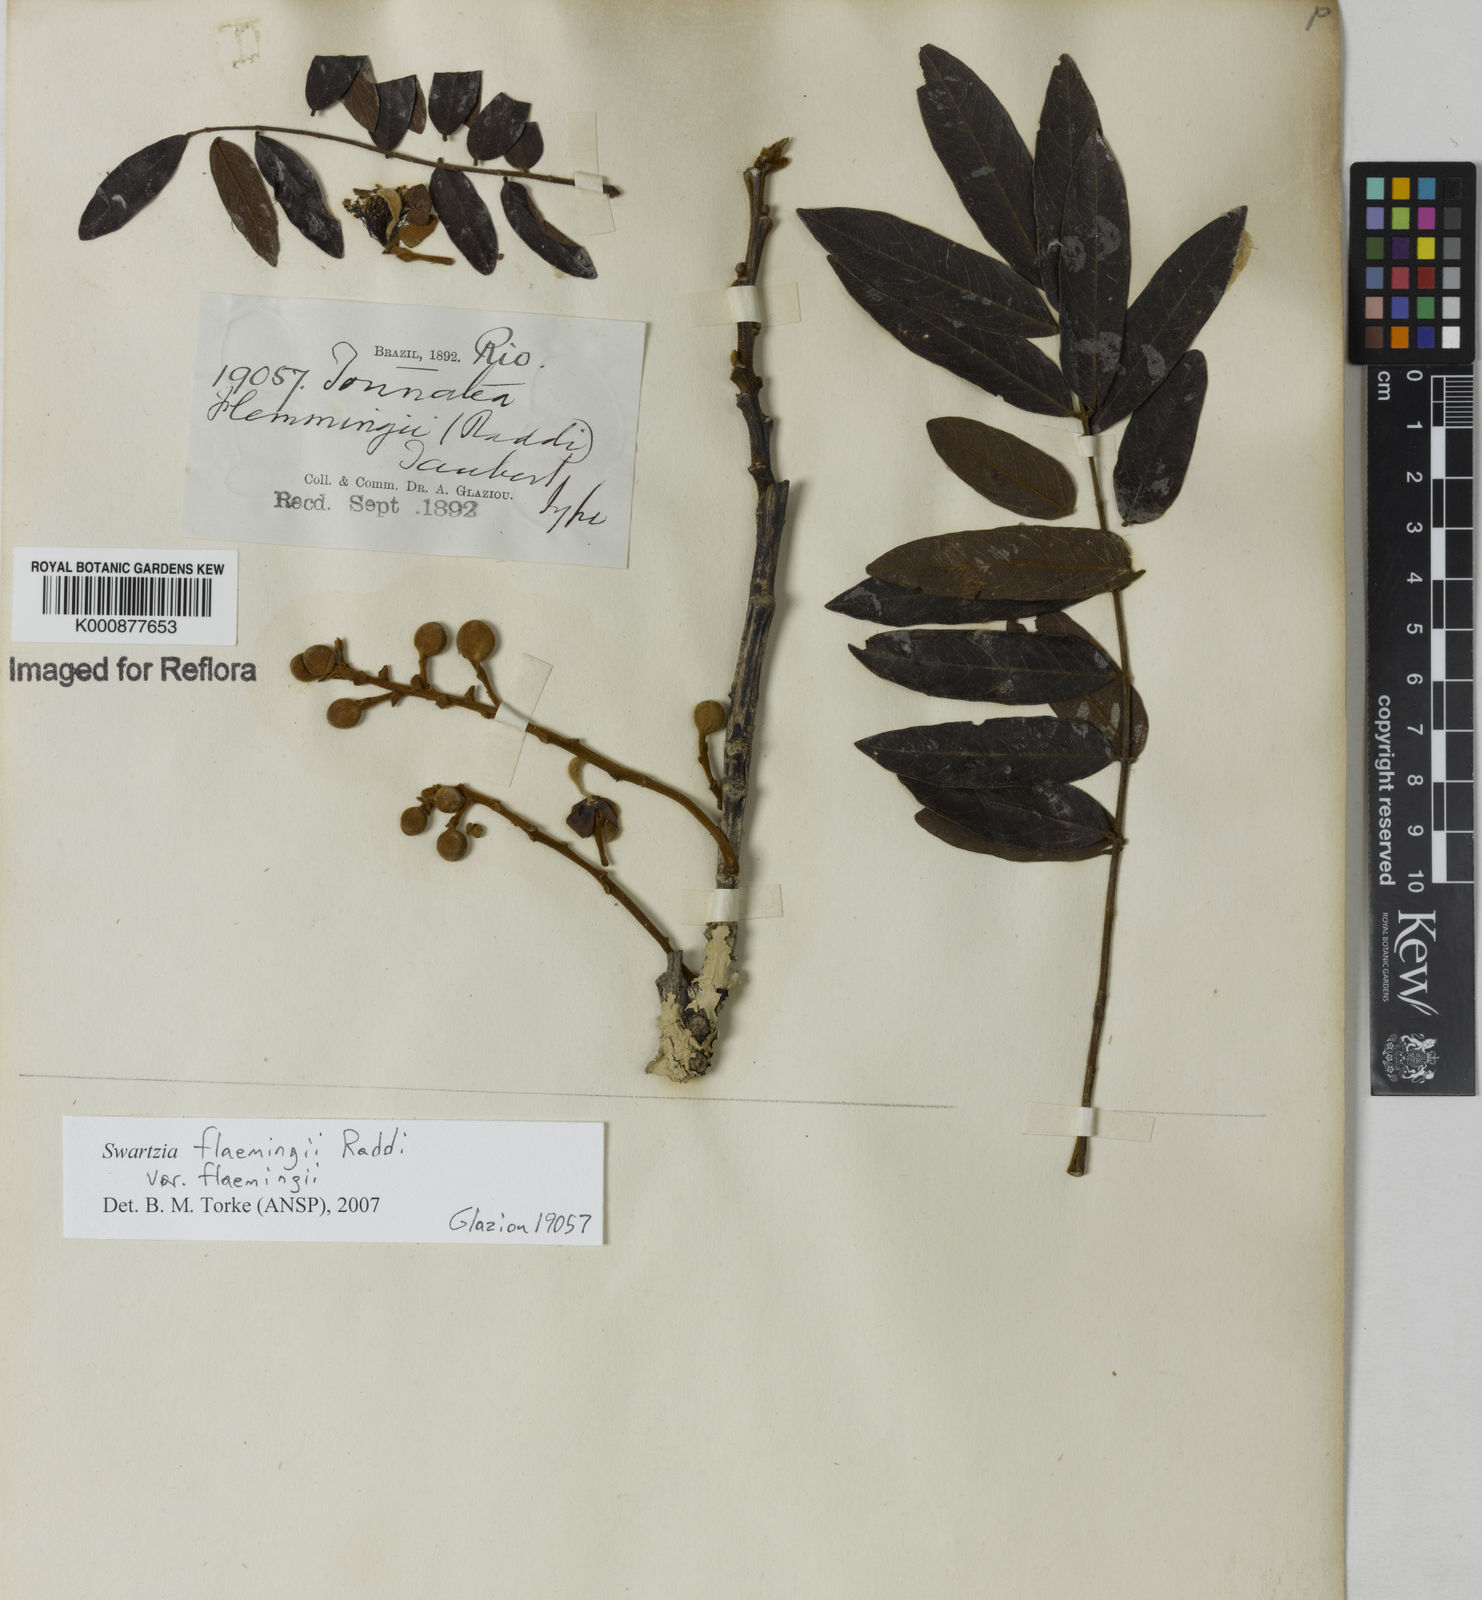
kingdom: Plantae
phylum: Tracheophyta
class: Magnoliopsida
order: Fabales
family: Fabaceae
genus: Swartzia
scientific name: Swartzia flaemingii
